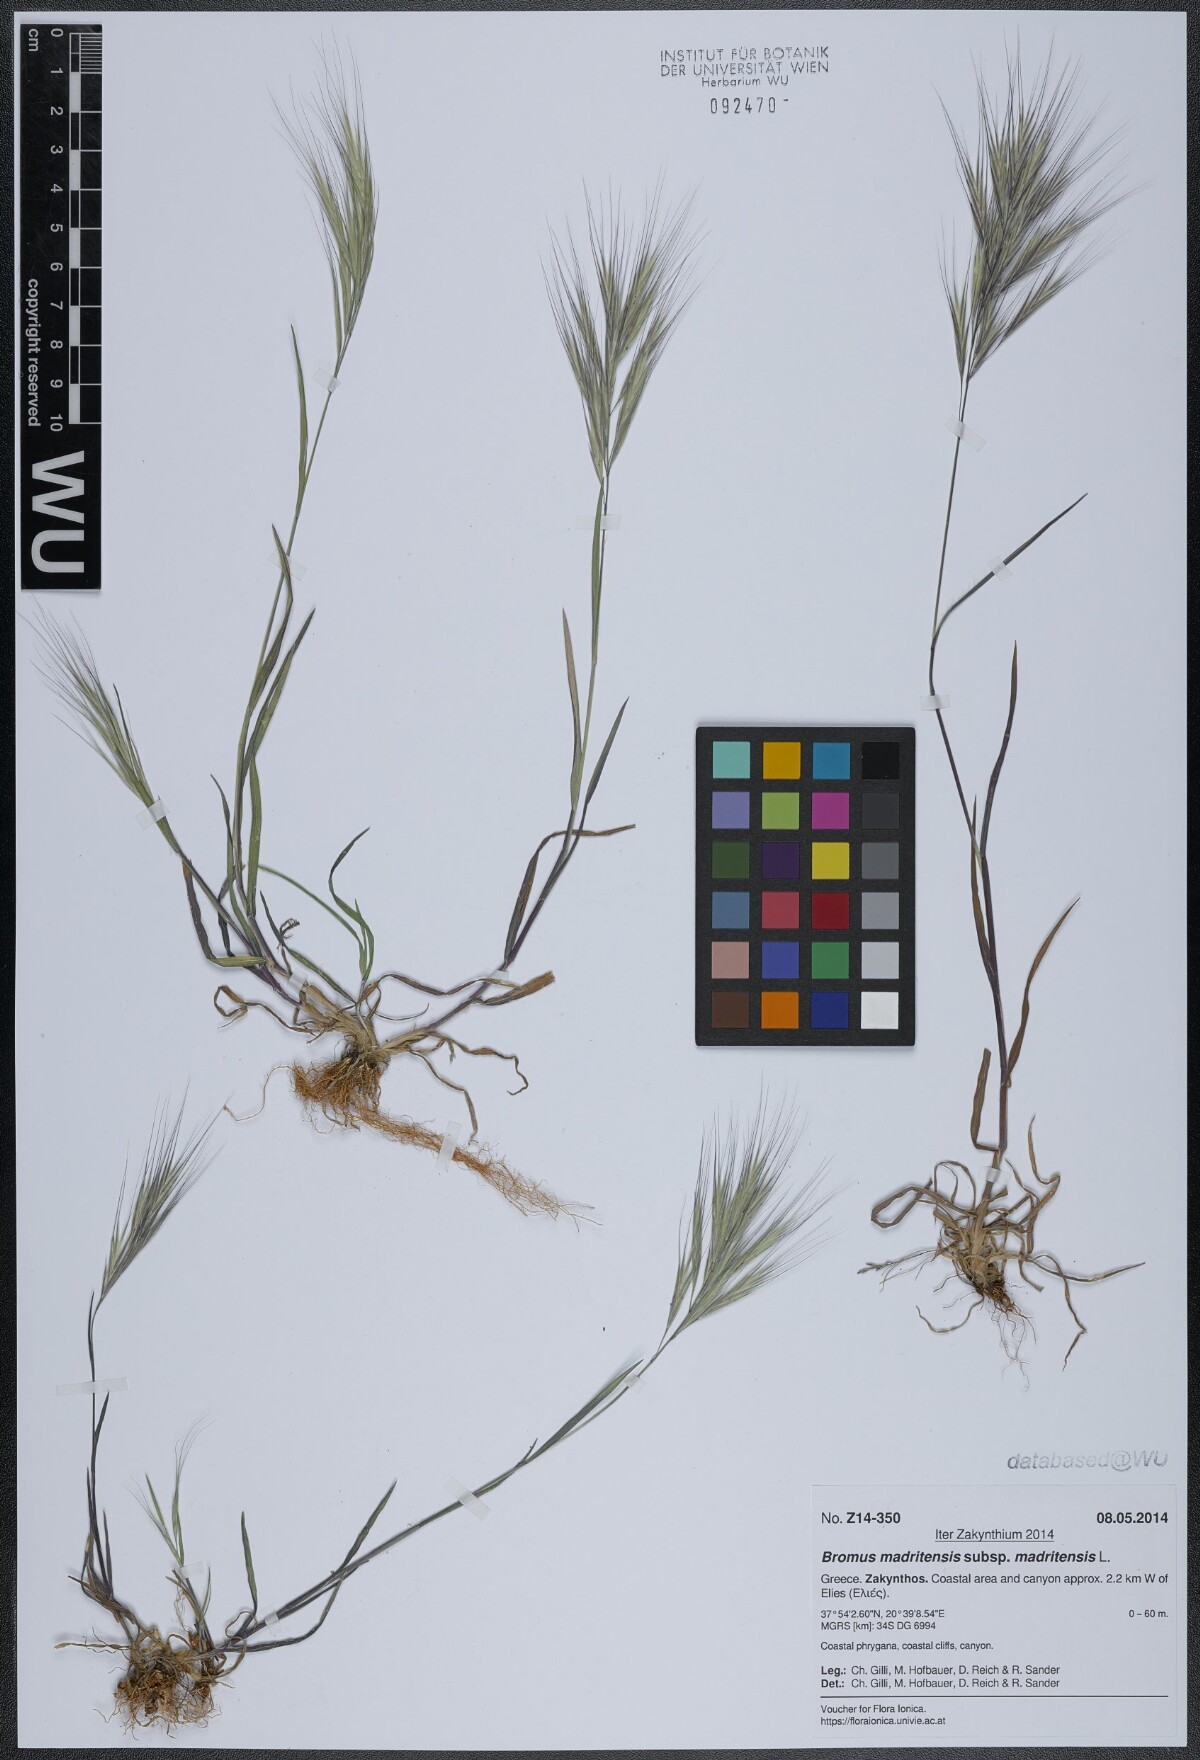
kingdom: Plantae
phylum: Tracheophyta
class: Liliopsida
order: Poales
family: Poaceae
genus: Bromus
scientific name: Bromus madritensis
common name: Compact brome
